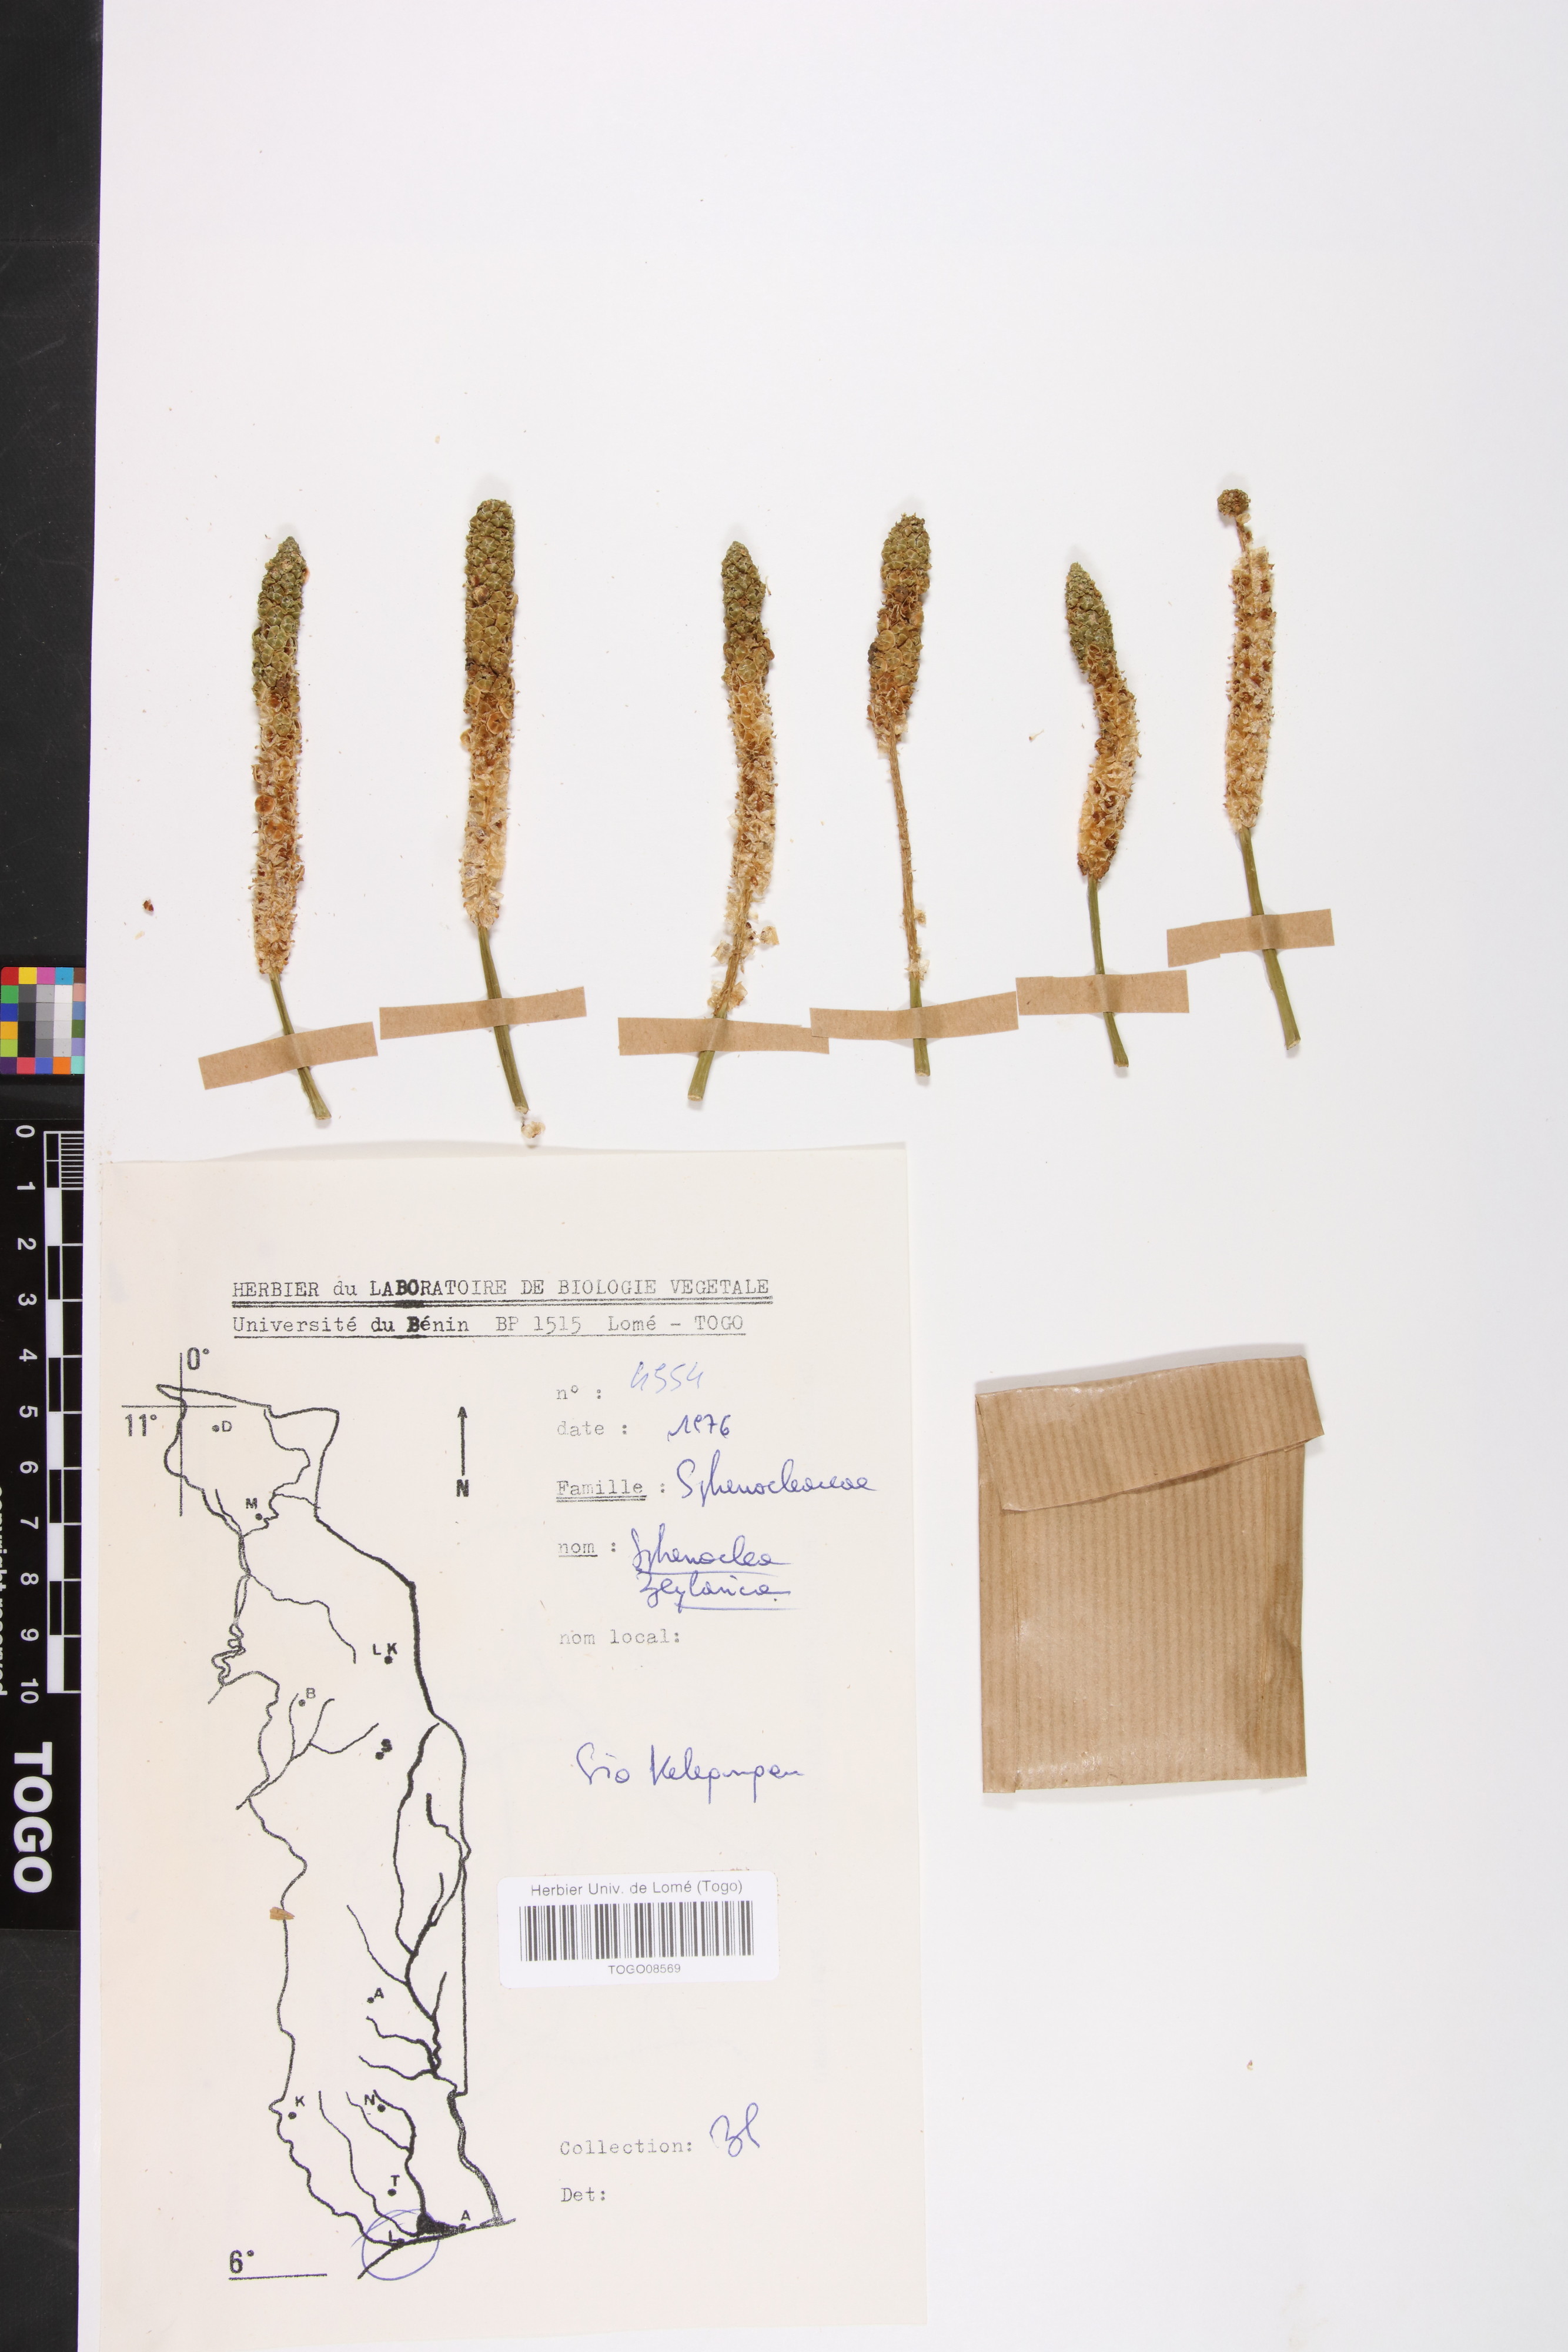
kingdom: Plantae
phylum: Tracheophyta
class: Magnoliopsida
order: Solanales
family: Sphenocleaceae
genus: Sphenoclea
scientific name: Sphenoclea zeylanica
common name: Chickenspike
